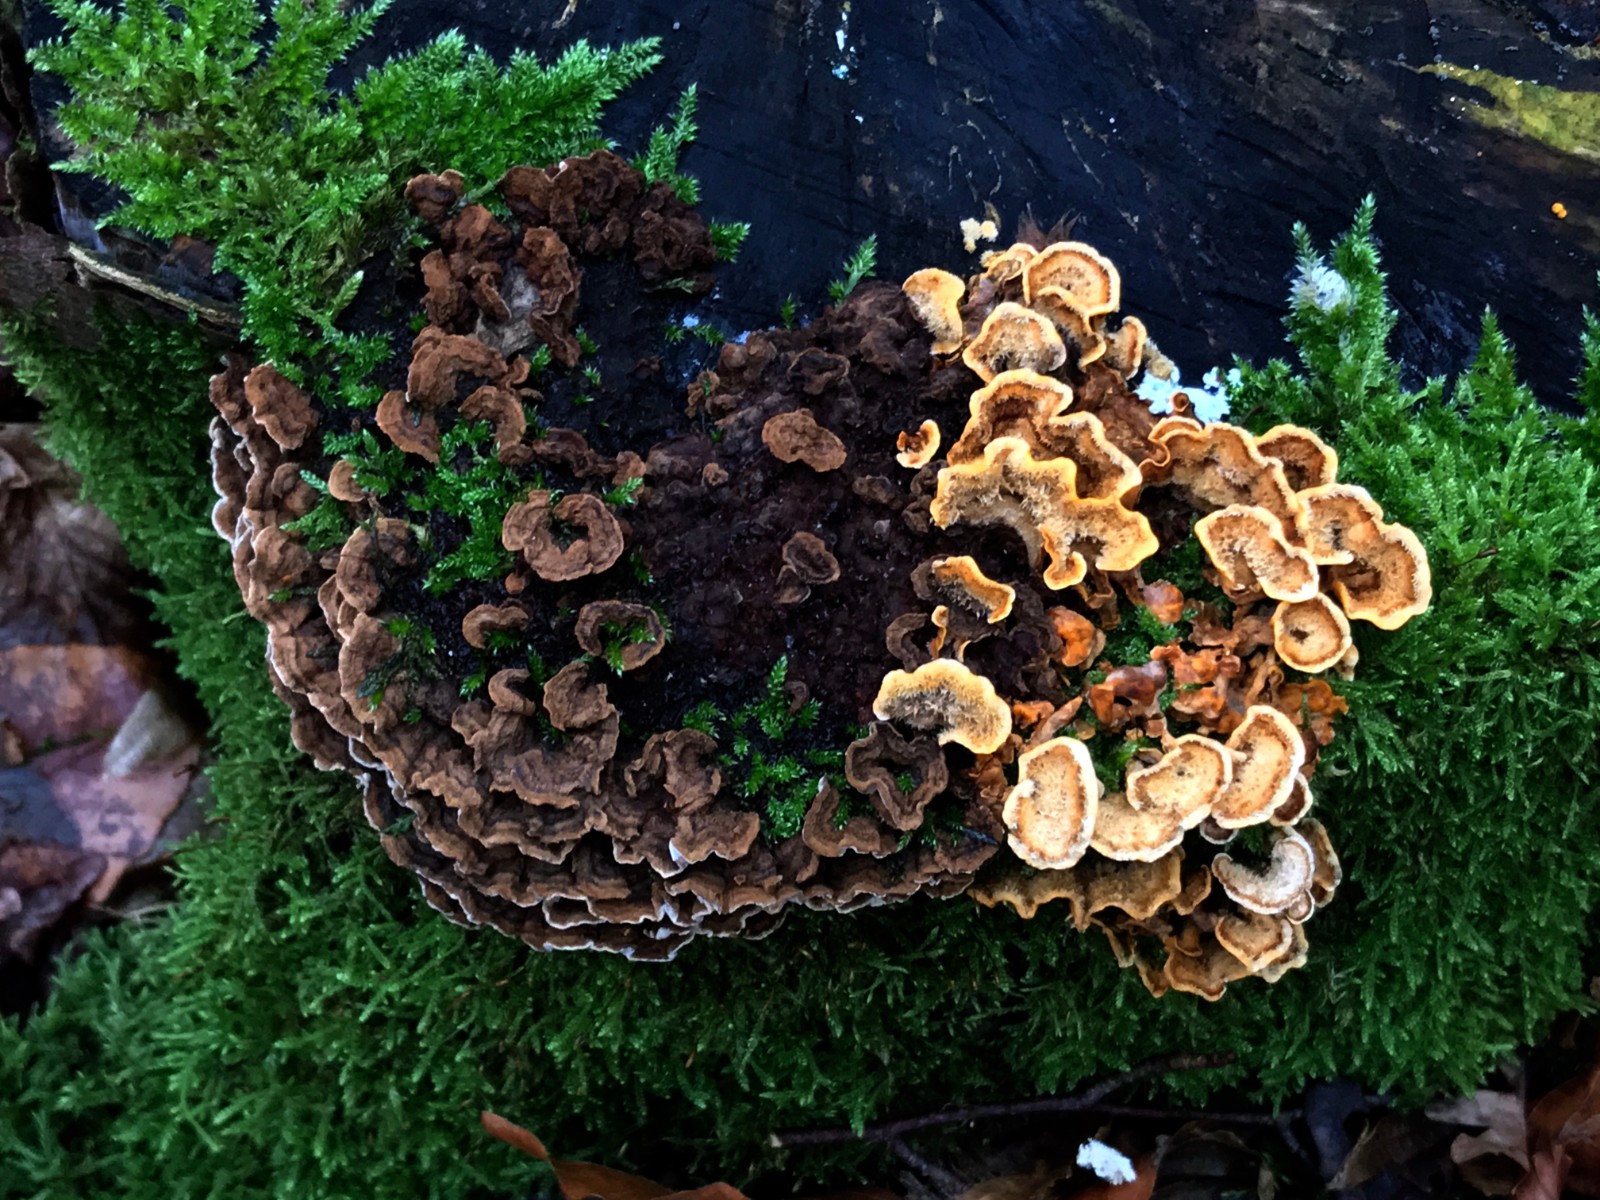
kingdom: Fungi
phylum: Basidiomycota
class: Agaricomycetes
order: Russulales
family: Stereaceae
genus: Stereum
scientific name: Stereum hirsutum
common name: håret lædersvamp
